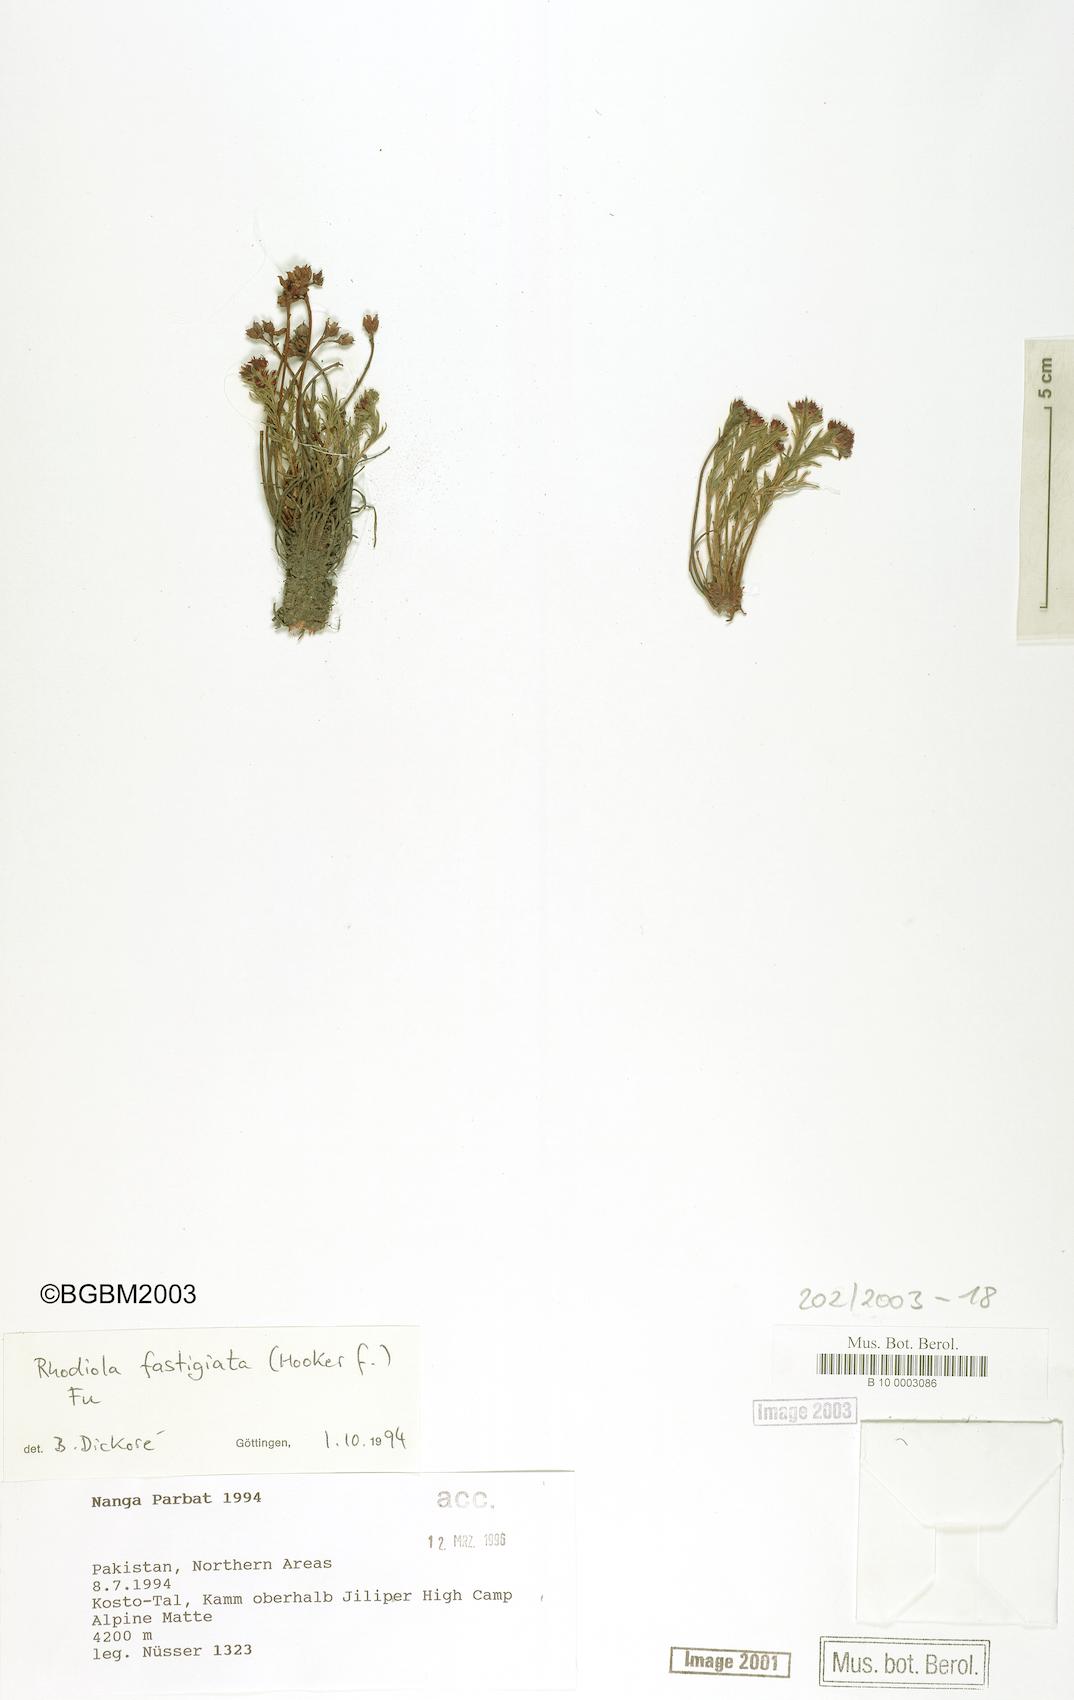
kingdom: Plantae
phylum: Tracheophyta
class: Magnoliopsida
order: Saxifragales
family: Crassulaceae
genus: Rhodiola
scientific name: Rhodiola fastigiata
